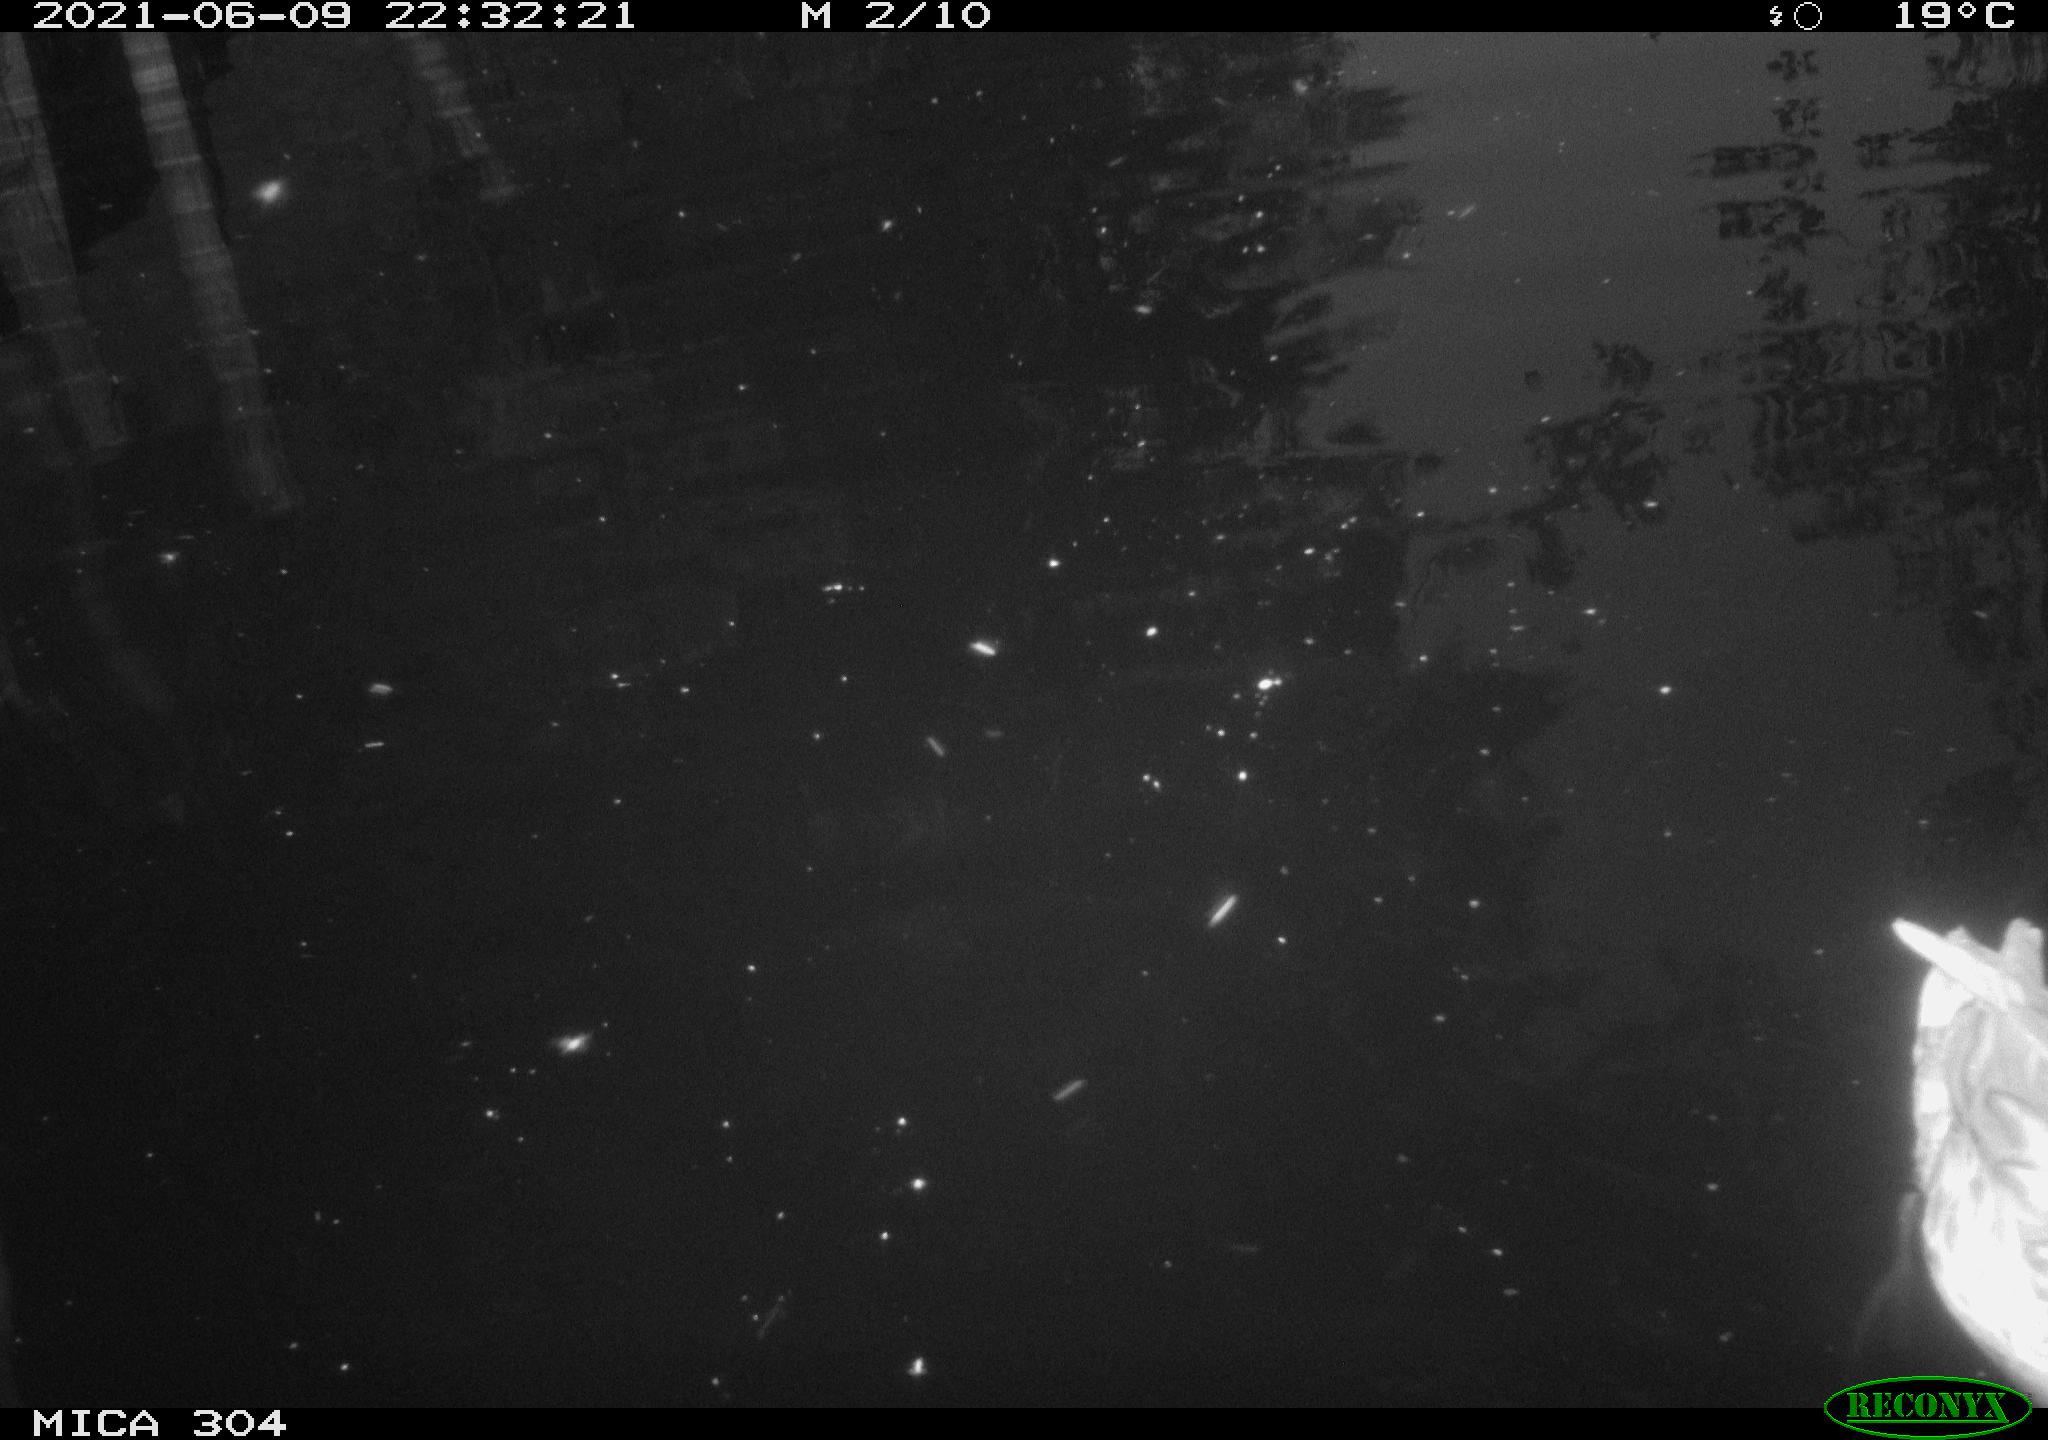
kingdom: Animalia
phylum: Chordata
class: Aves
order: Anseriformes
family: Anatidae
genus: Anas
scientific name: Anas platyrhynchos
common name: Mallard
